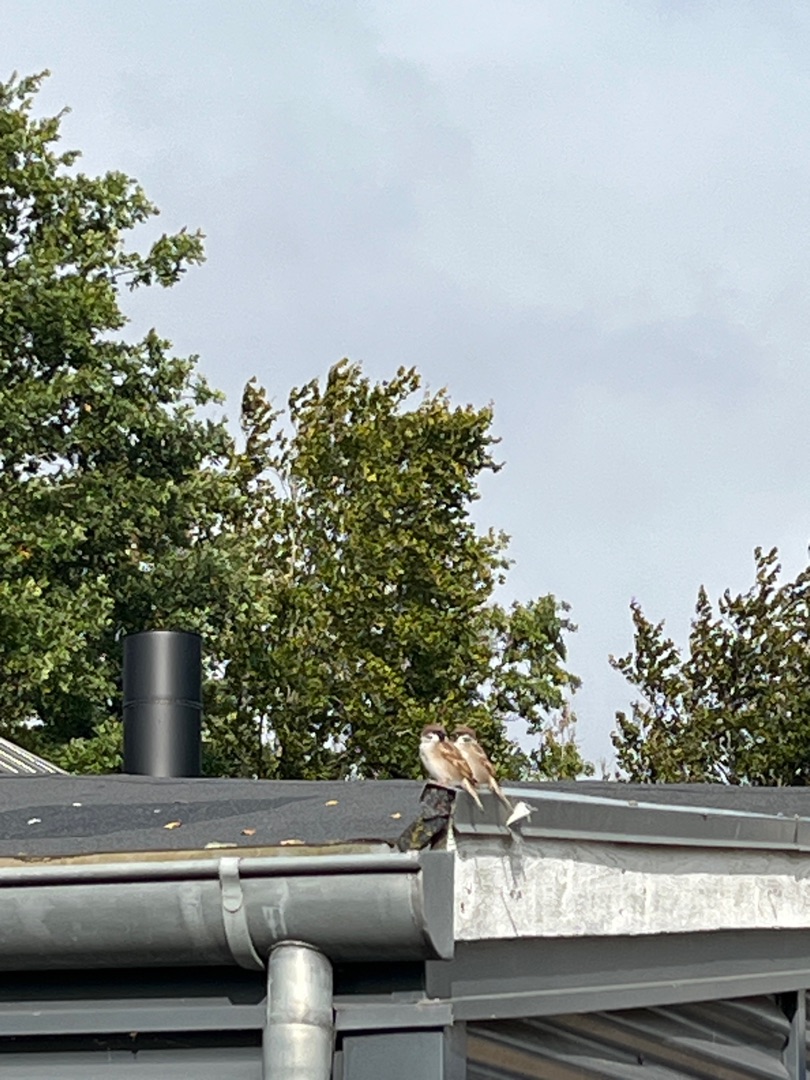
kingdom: Animalia
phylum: Chordata
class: Aves
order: Passeriformes
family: Passeridae
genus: Passer
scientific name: Passer montanus
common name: Skovspurv
